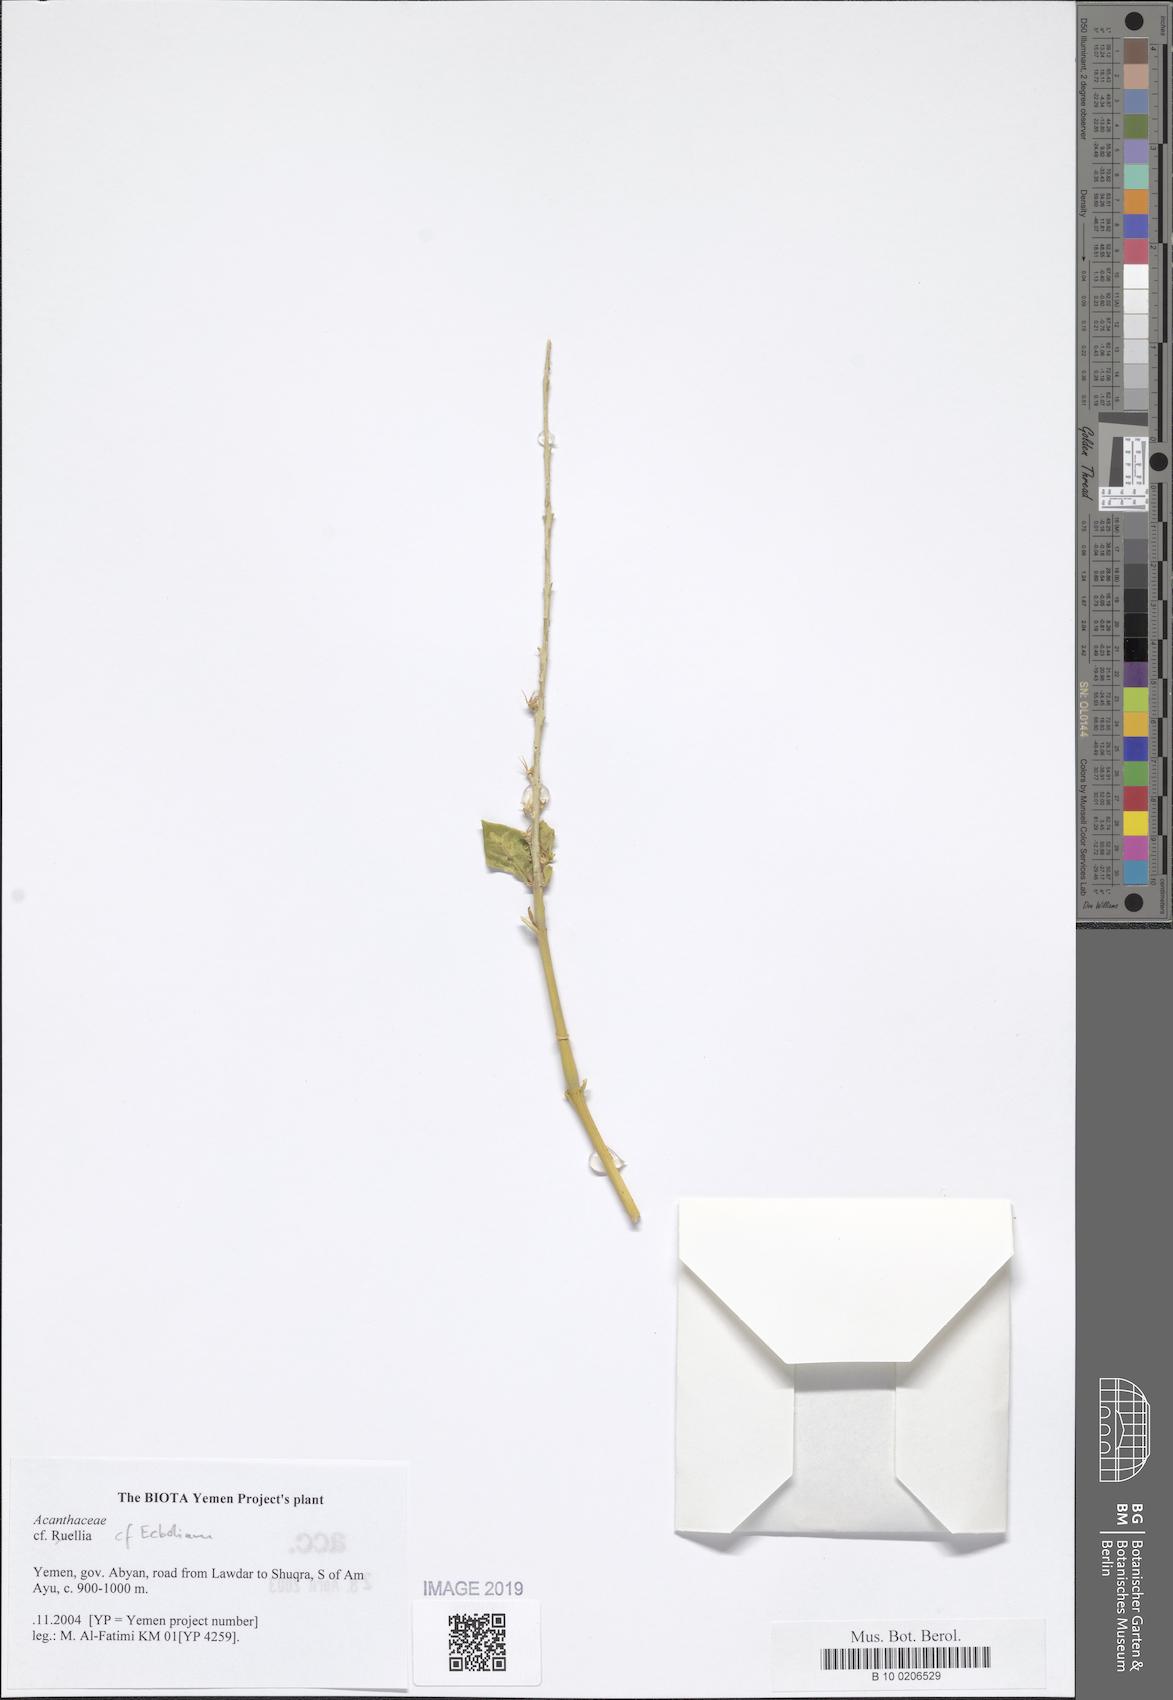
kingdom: Plantae
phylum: Tracheophyta
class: Magnoliopsida
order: Lamiales
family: Acanthaceae
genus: Ruellia
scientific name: Ruellia
